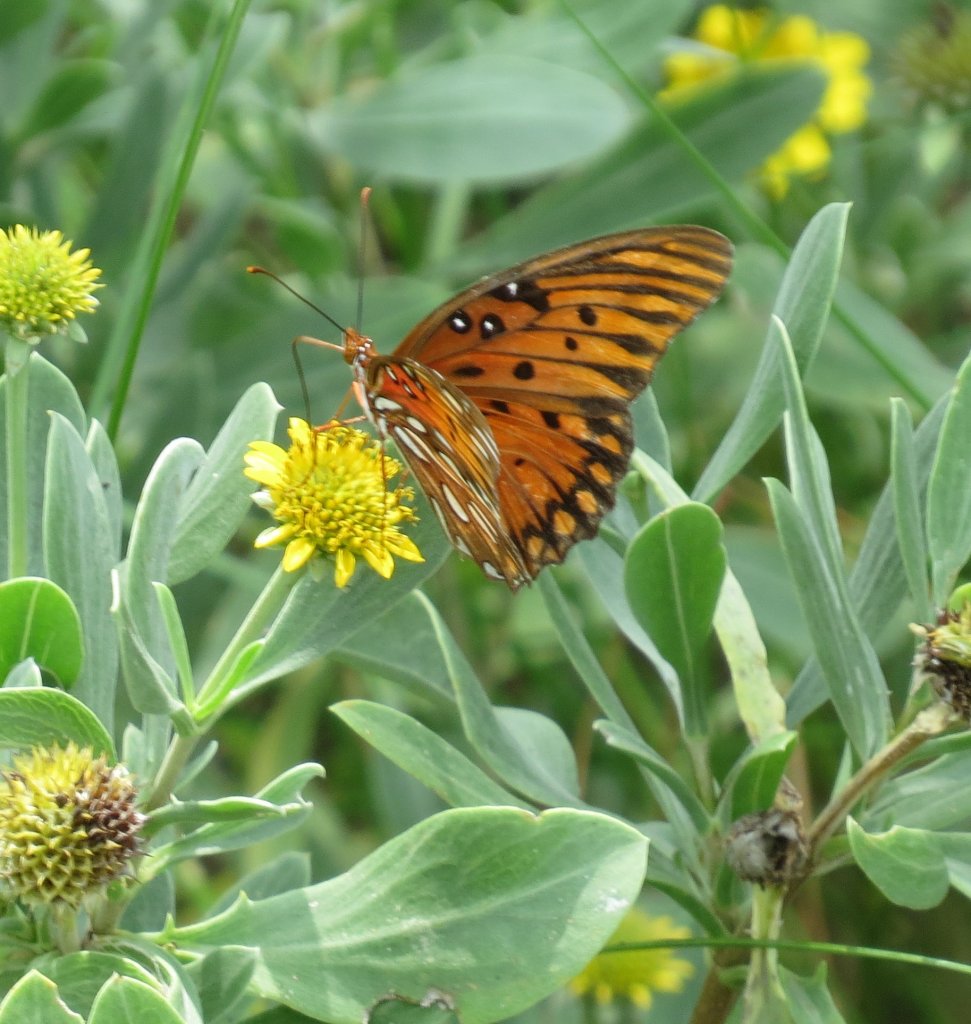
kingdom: Animalia
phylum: Arthropoda
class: Insecta
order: Lepidoptera
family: Nymphalidae
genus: Dione
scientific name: Dione vanillae
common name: Gulf Fritillary
